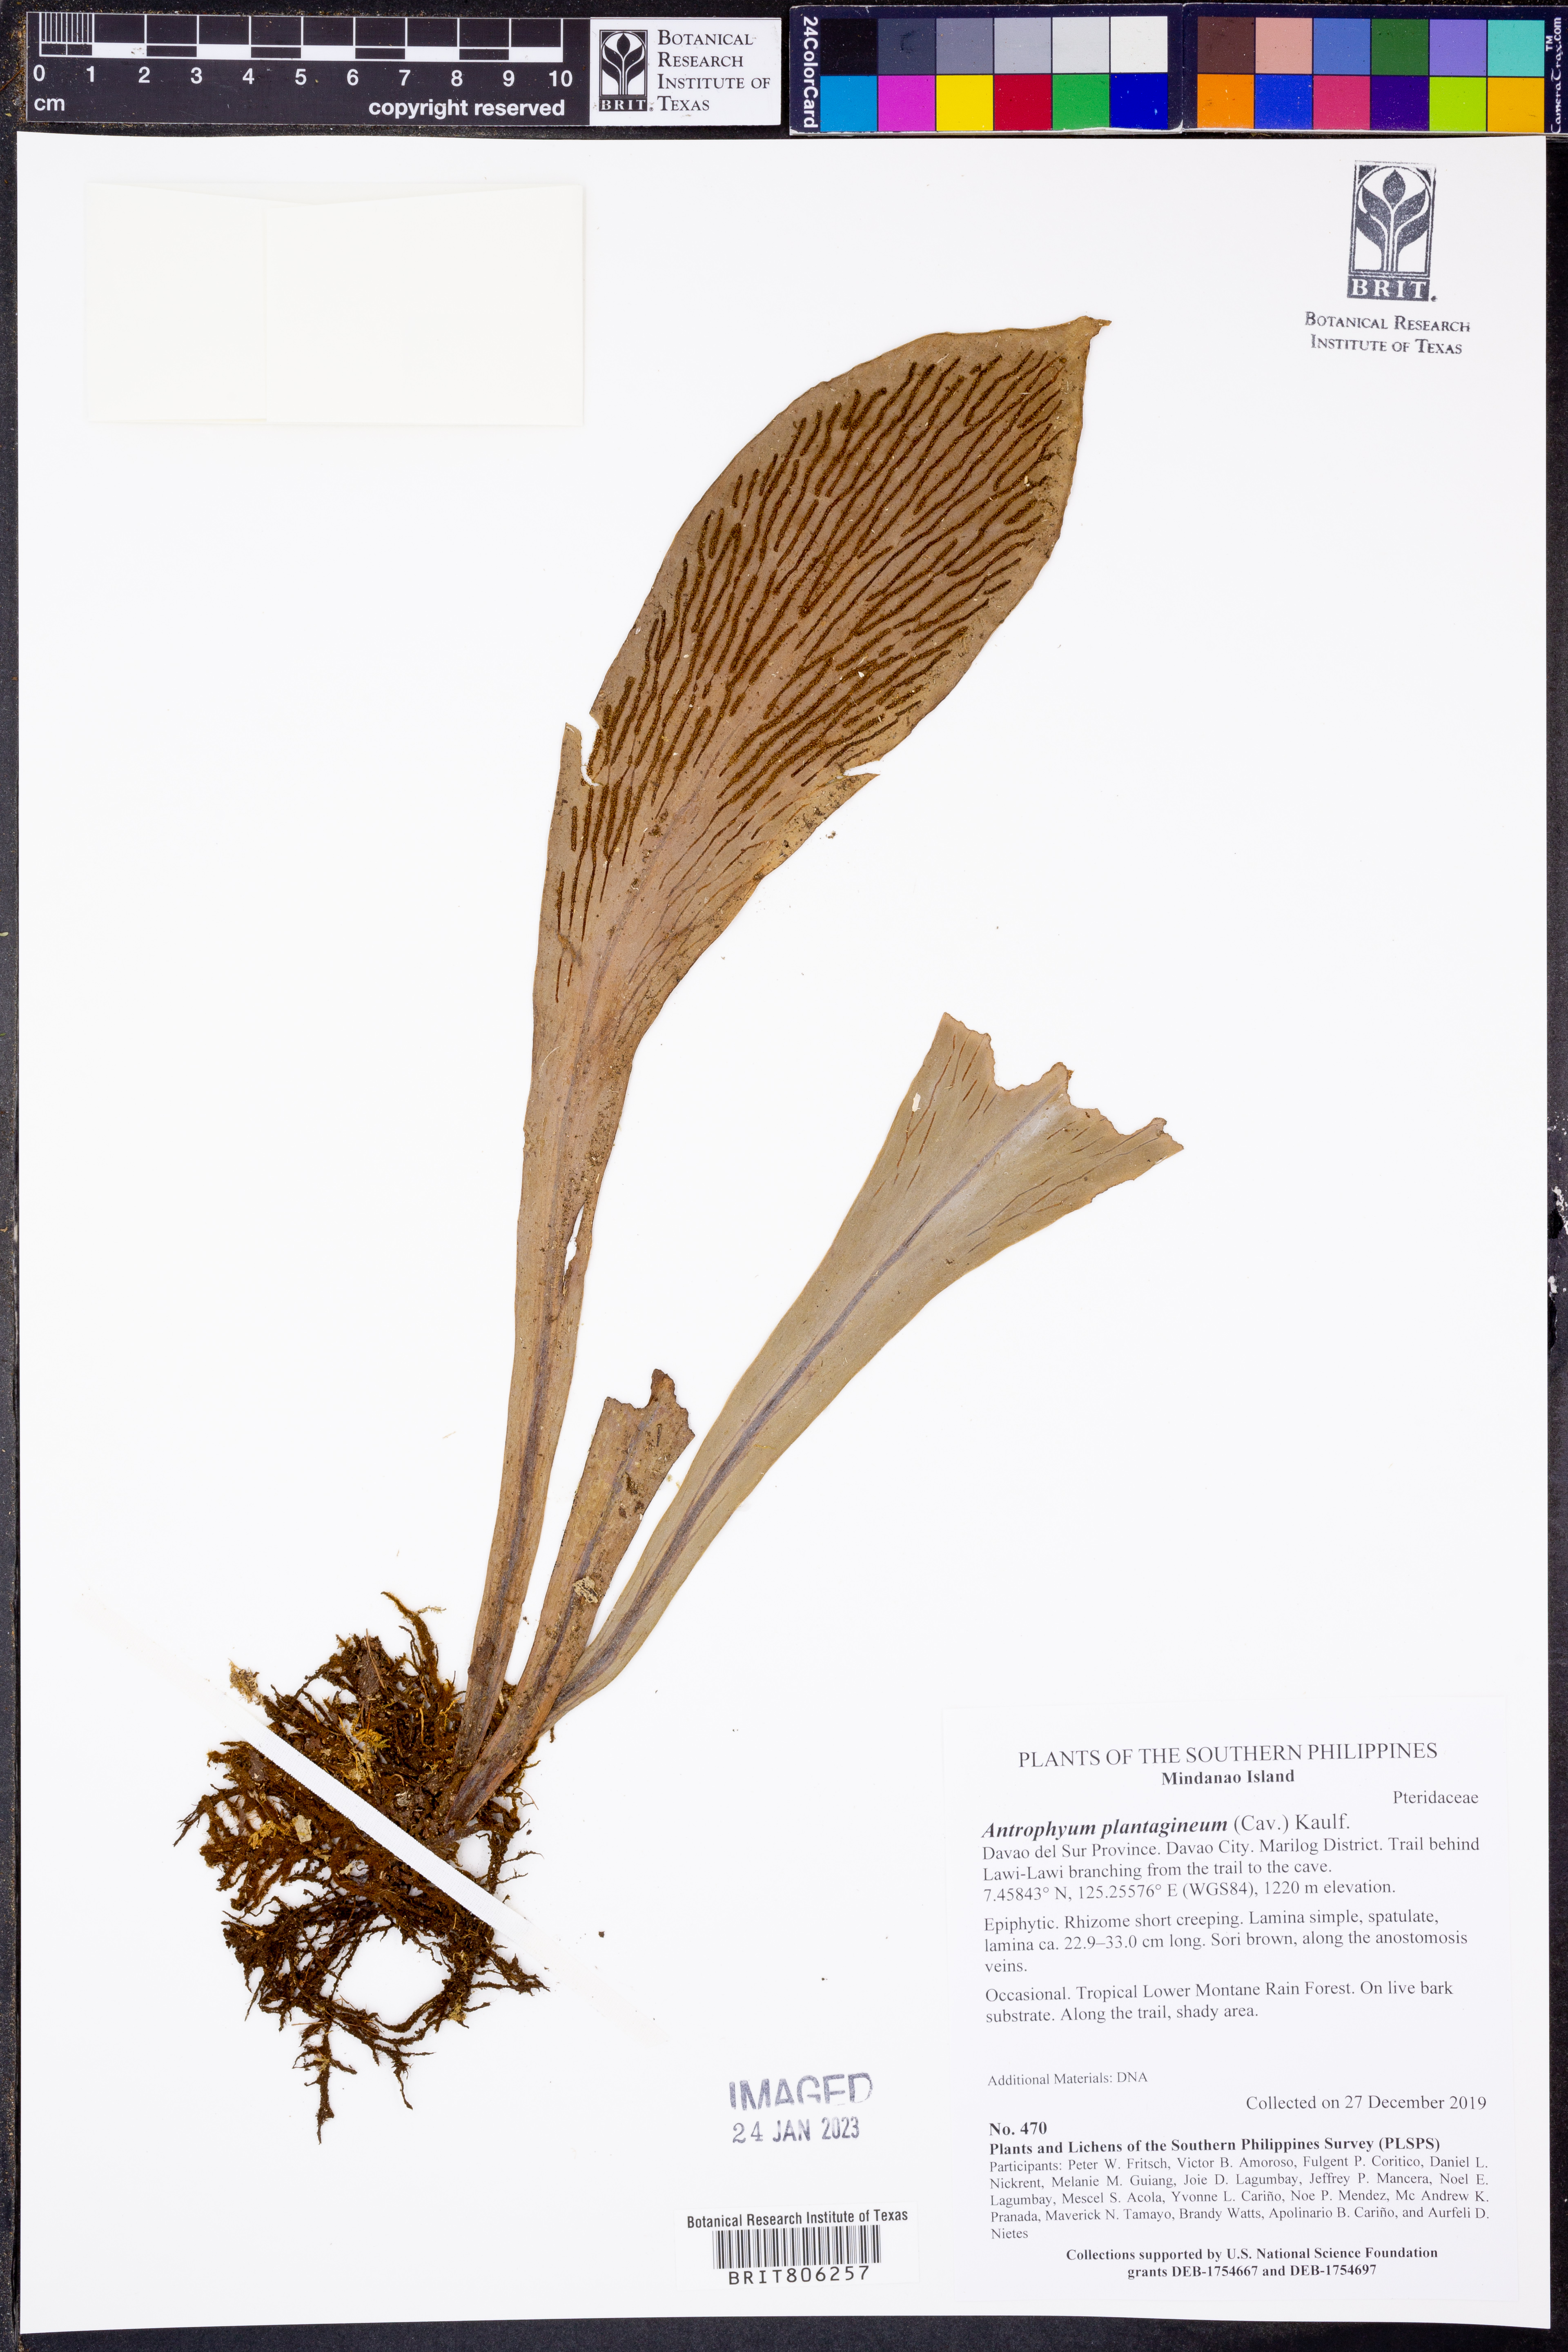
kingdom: Plantae
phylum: Tracheophyta
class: Polypodiopsida
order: Polypodiales
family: Pteridaceae
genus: Antrophyum
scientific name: Antrophyum plantagineum
